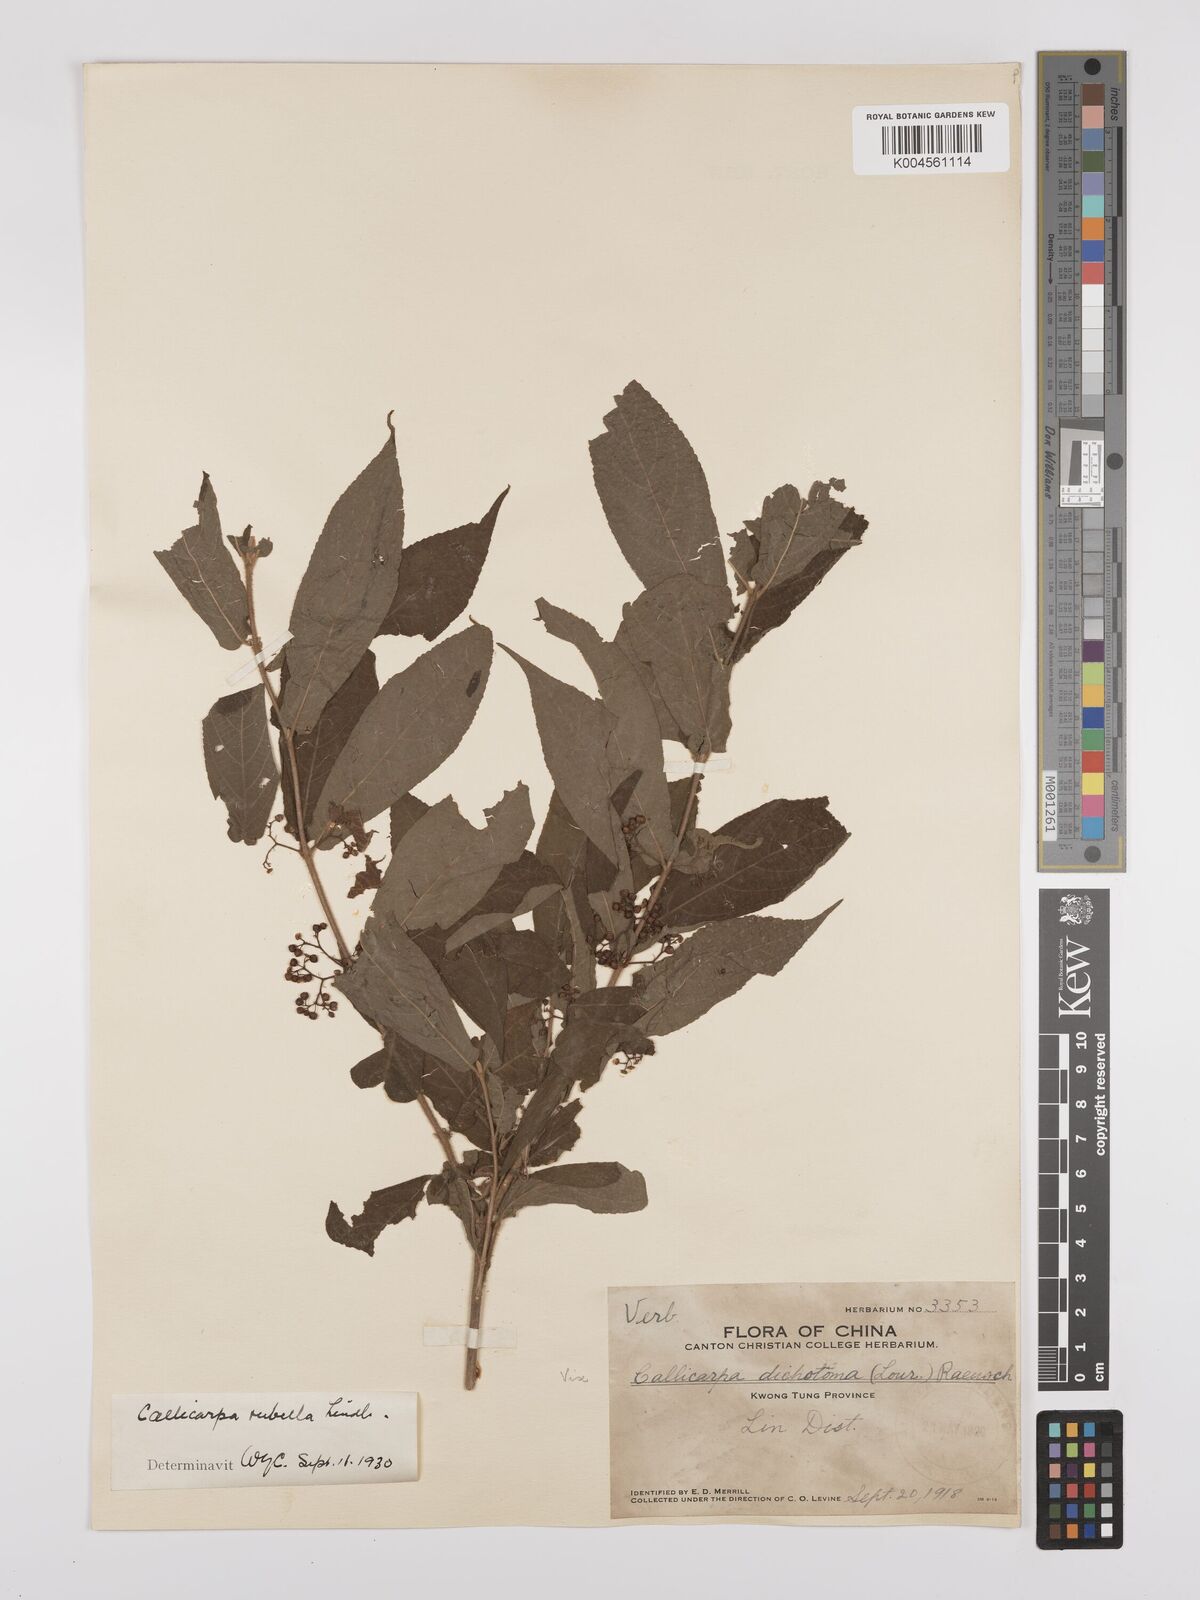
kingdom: Plantae
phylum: Tracheophyta
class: Magnoliopsida
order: Lamiales
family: Lamiaceae
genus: Callicarpa
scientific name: Callicarpa rubella
